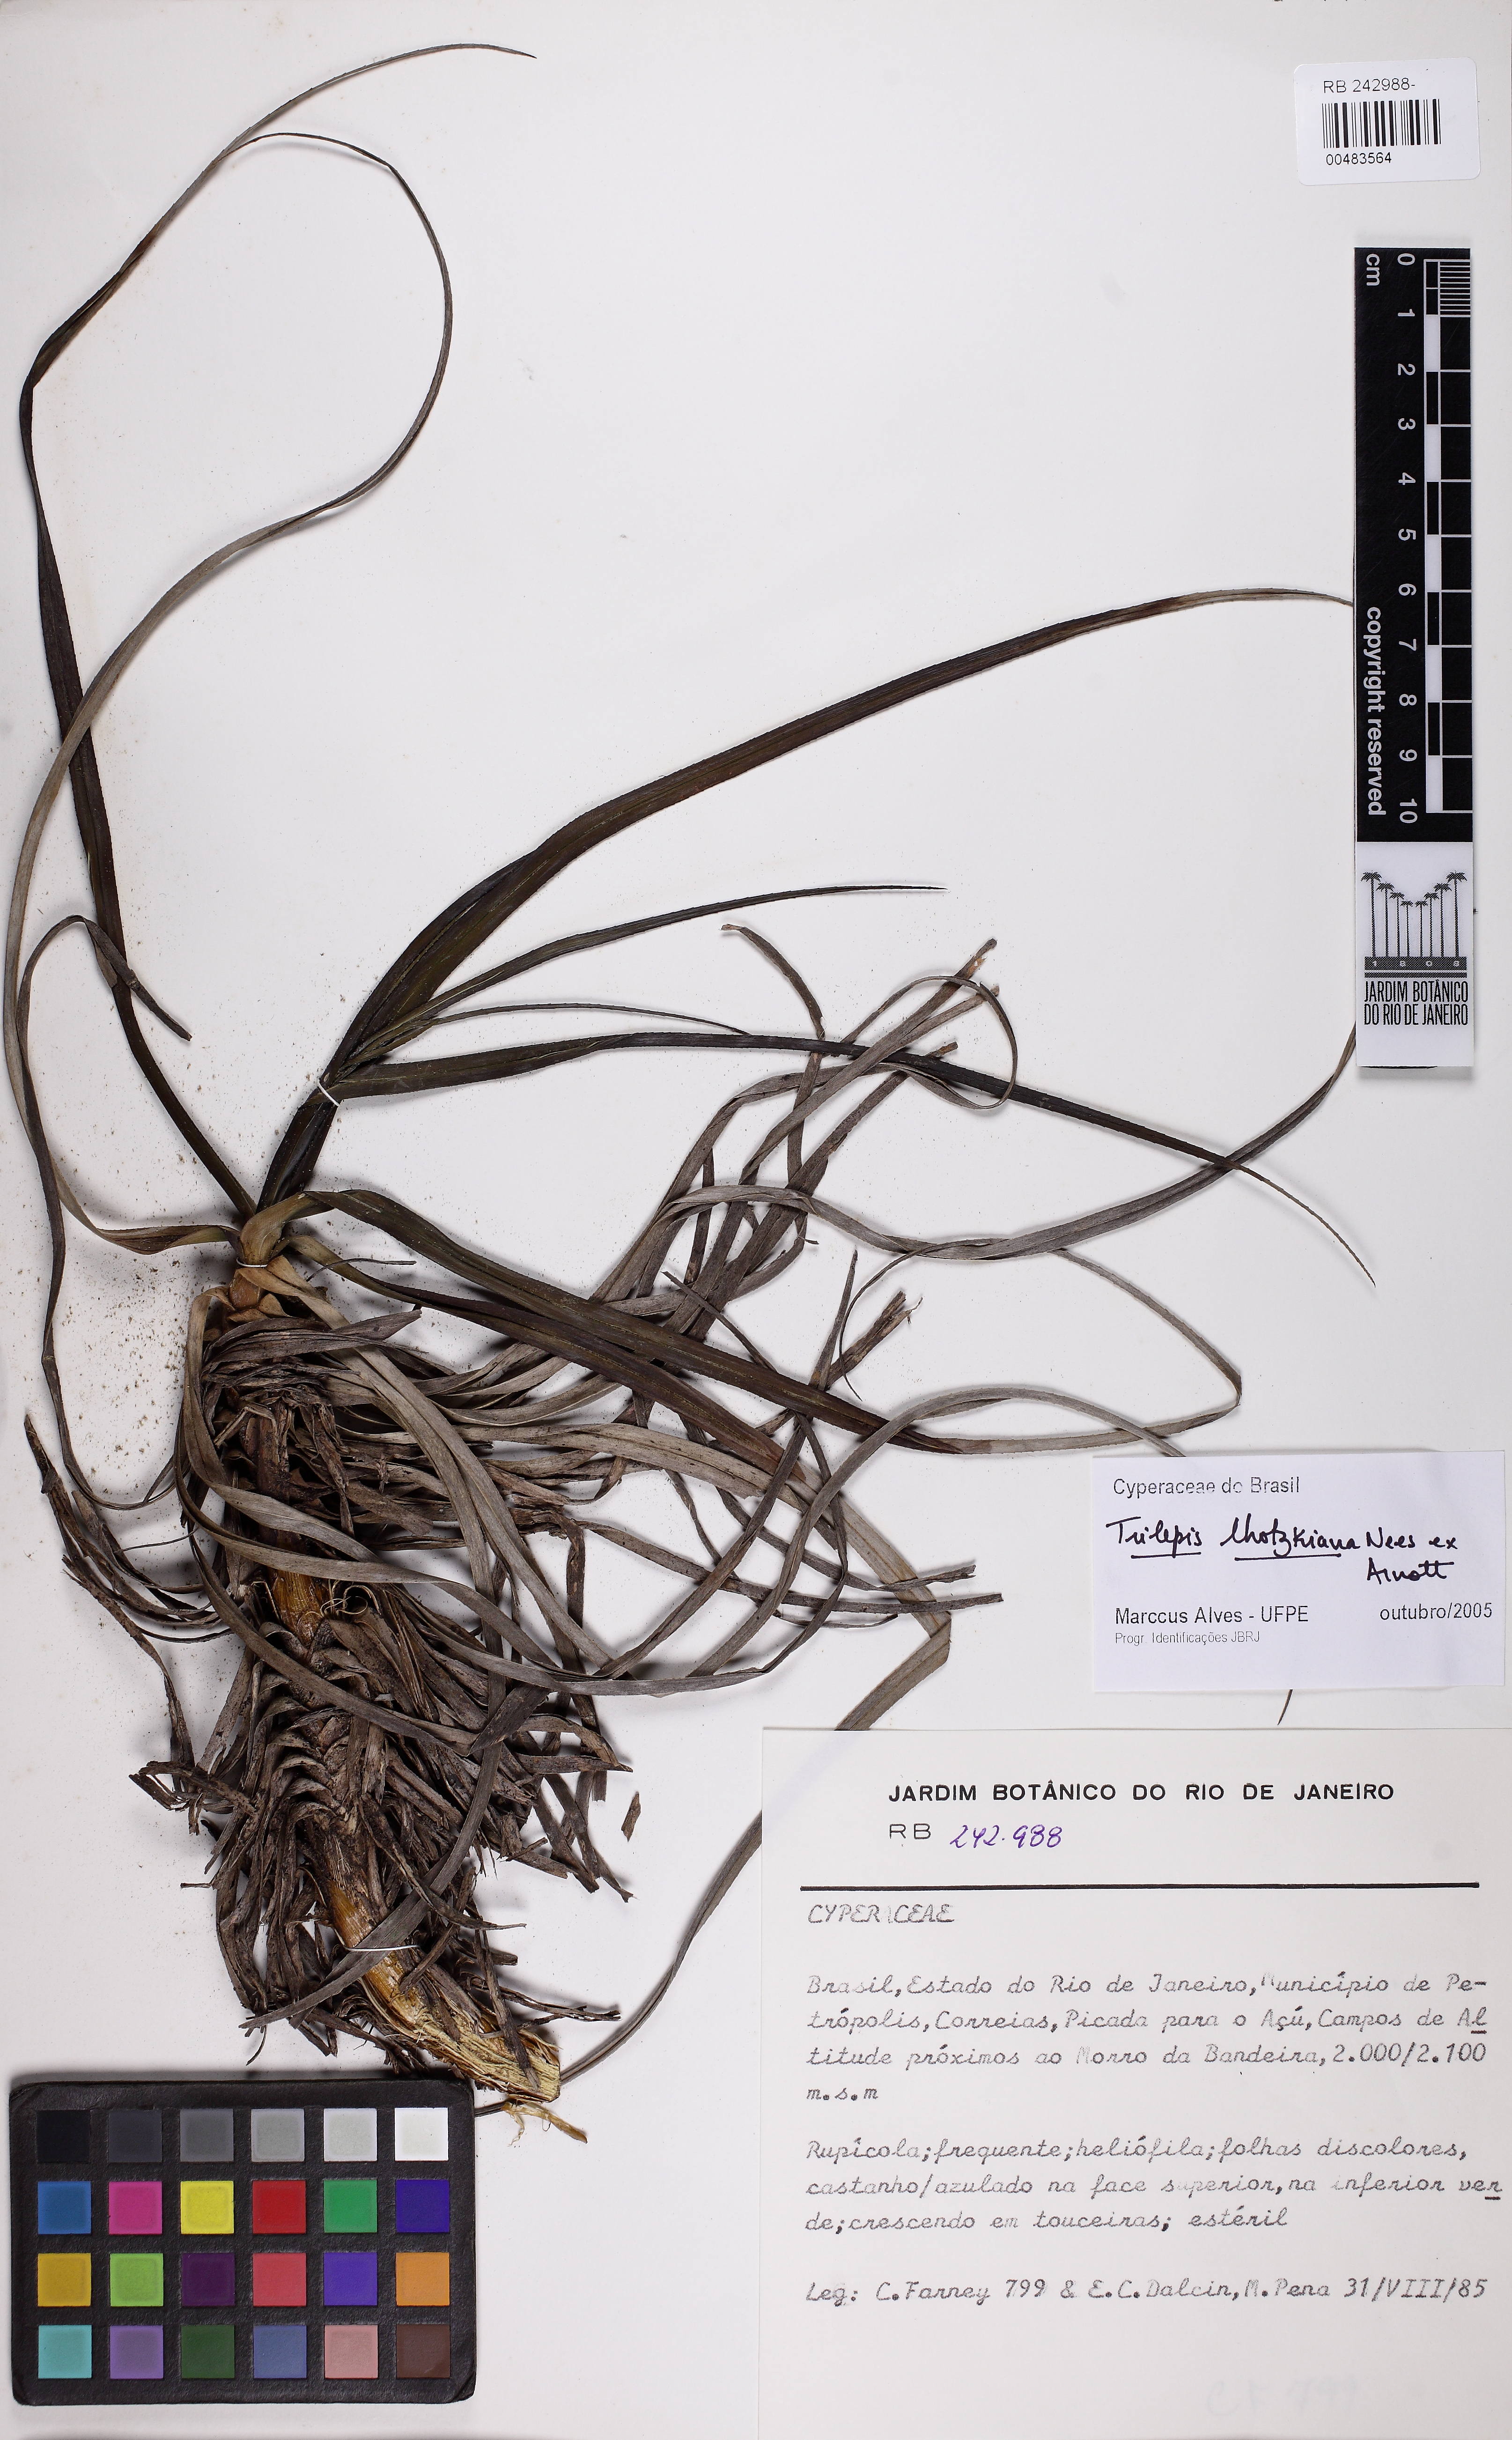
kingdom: Plantae
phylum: Tracheophyta
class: Liliopsida
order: Poales
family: Cyperaceae
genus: Trilepis
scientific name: Trilepis lhotzkiana
